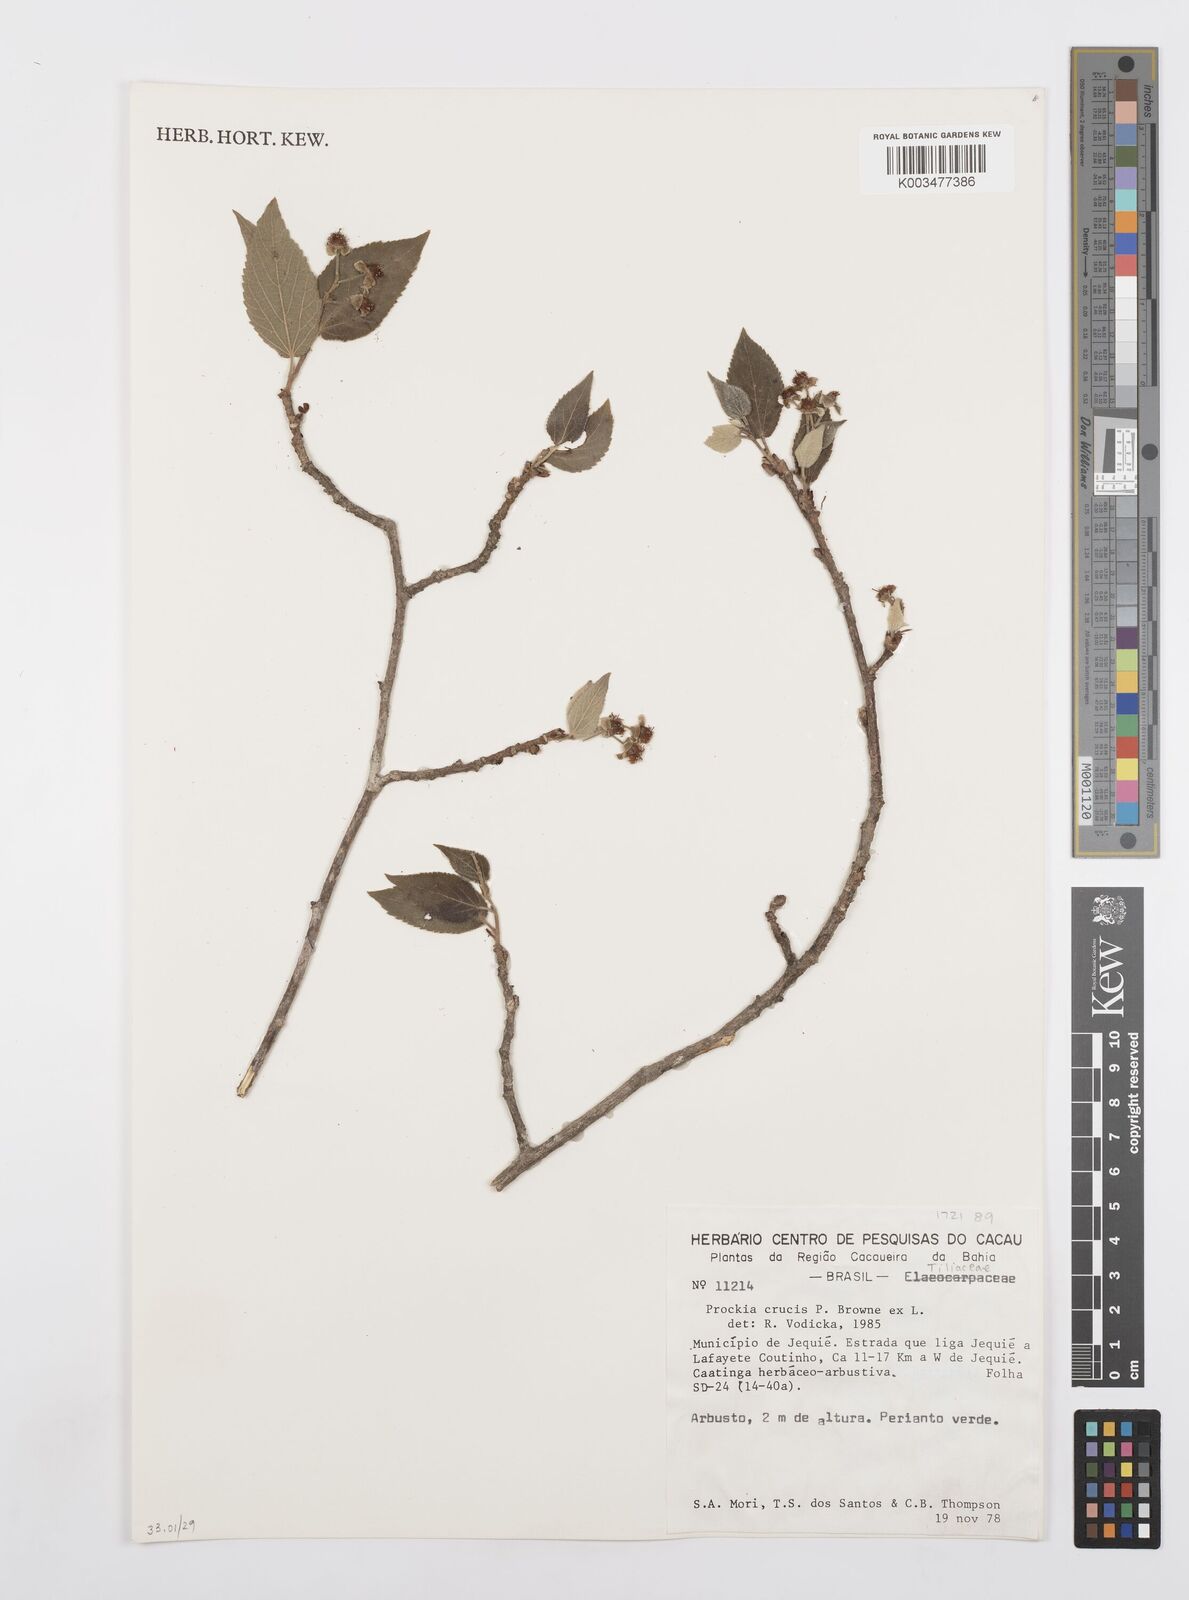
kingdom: Plantae
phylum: Tracheophyta
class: Magnoliopsida
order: Malpighiales
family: Salicaceae
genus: Prockia
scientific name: Prockia crucis
